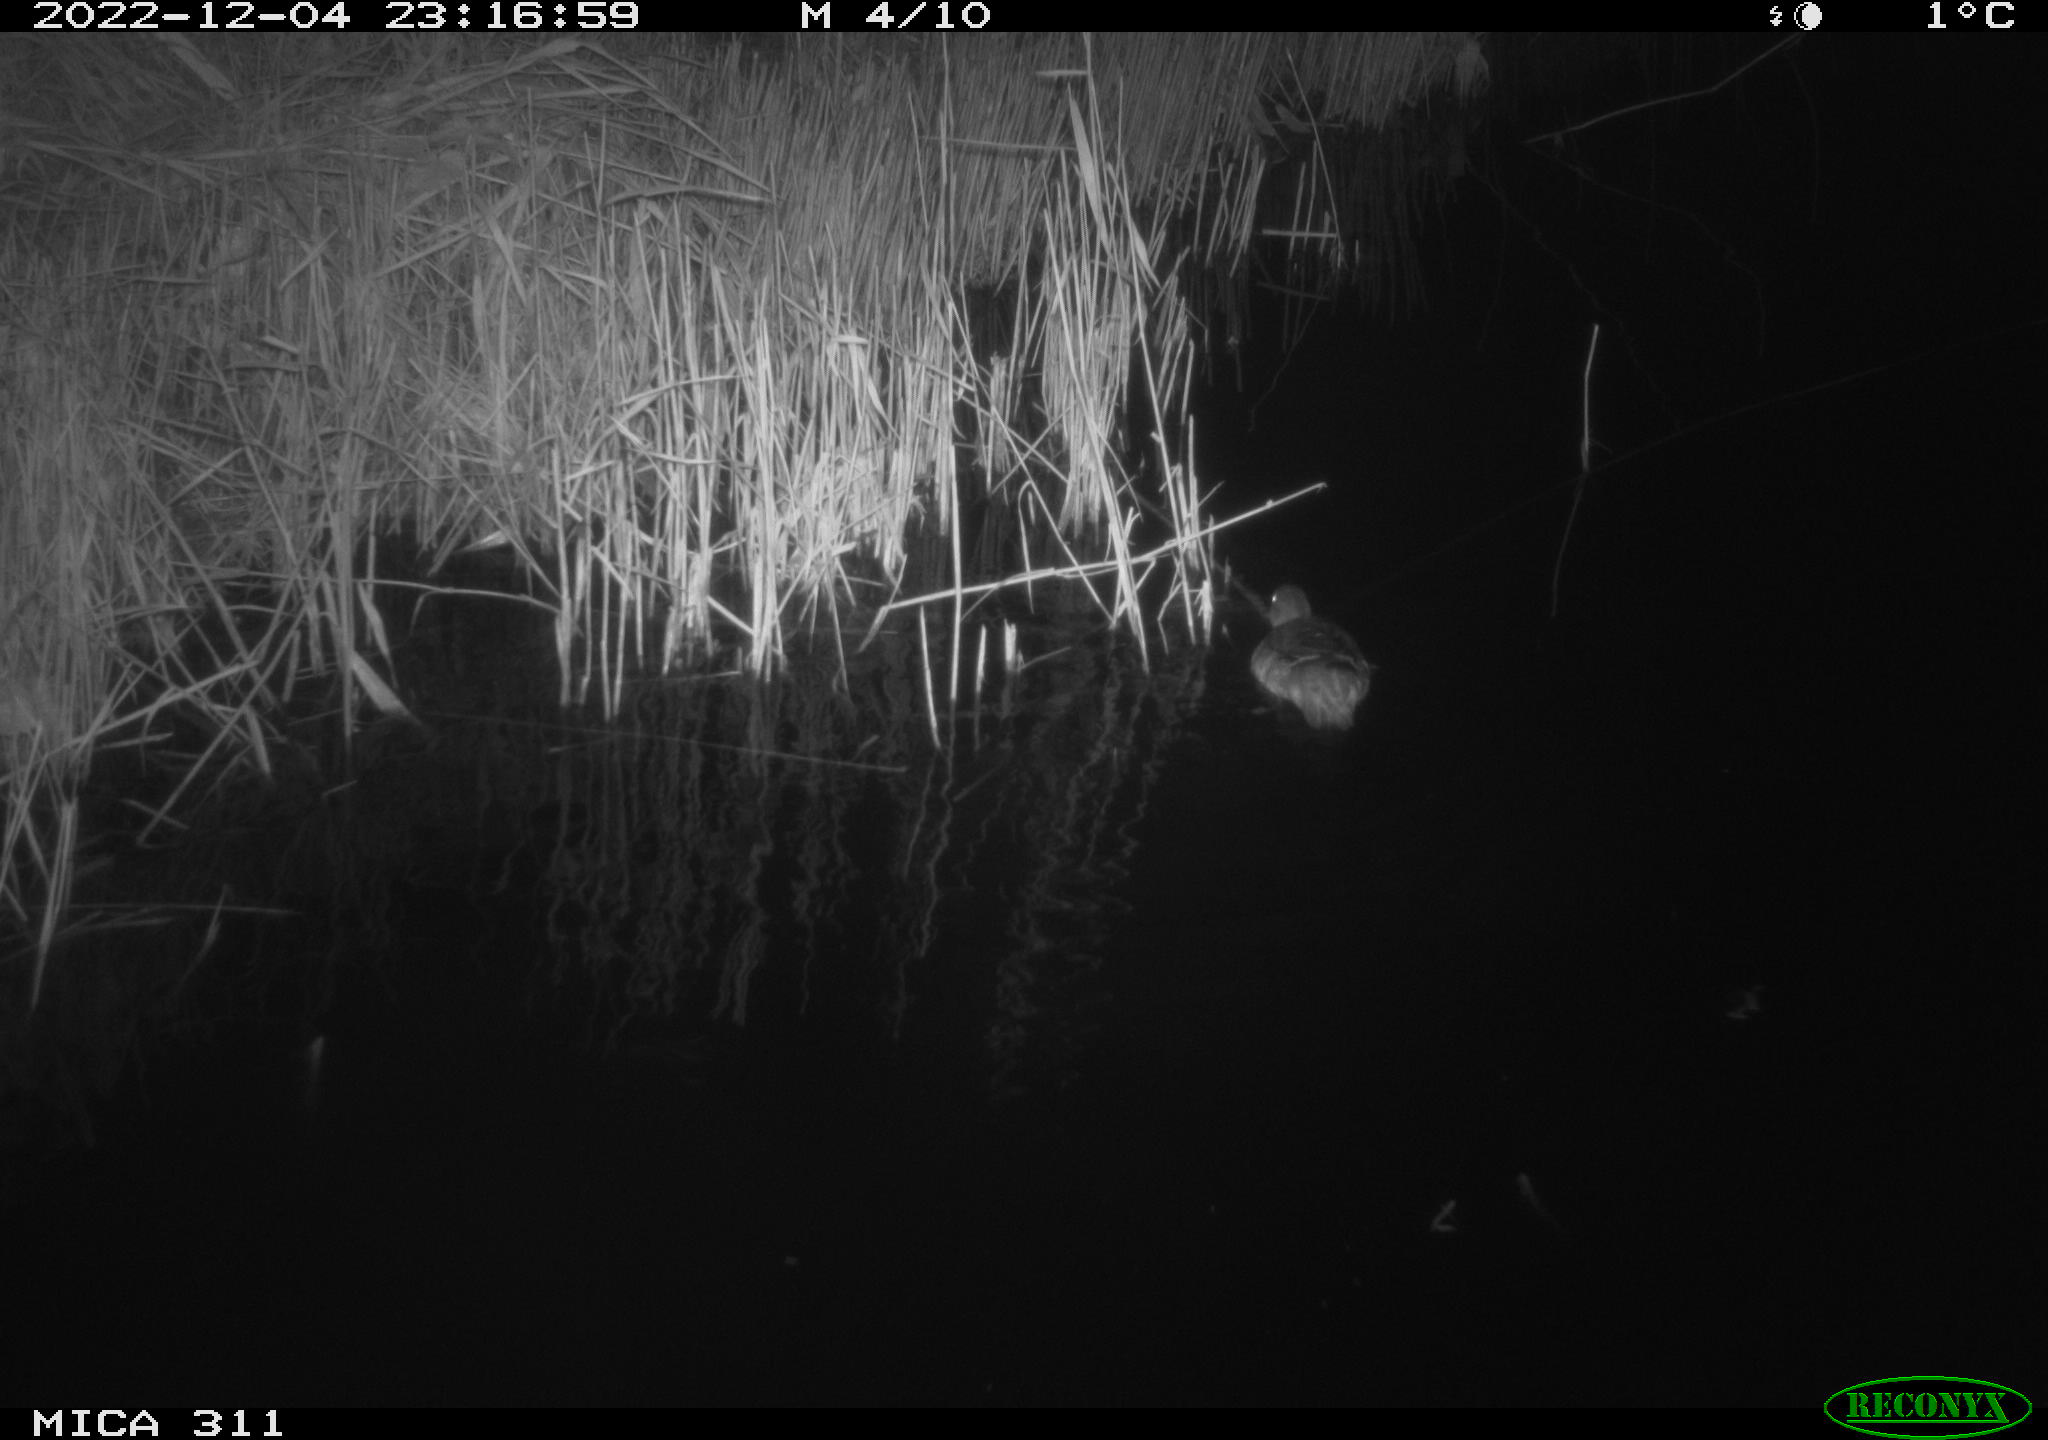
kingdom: Animalia
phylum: Chordata
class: Aves
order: Anseriformes
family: Anatidae
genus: Anas
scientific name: Anas
